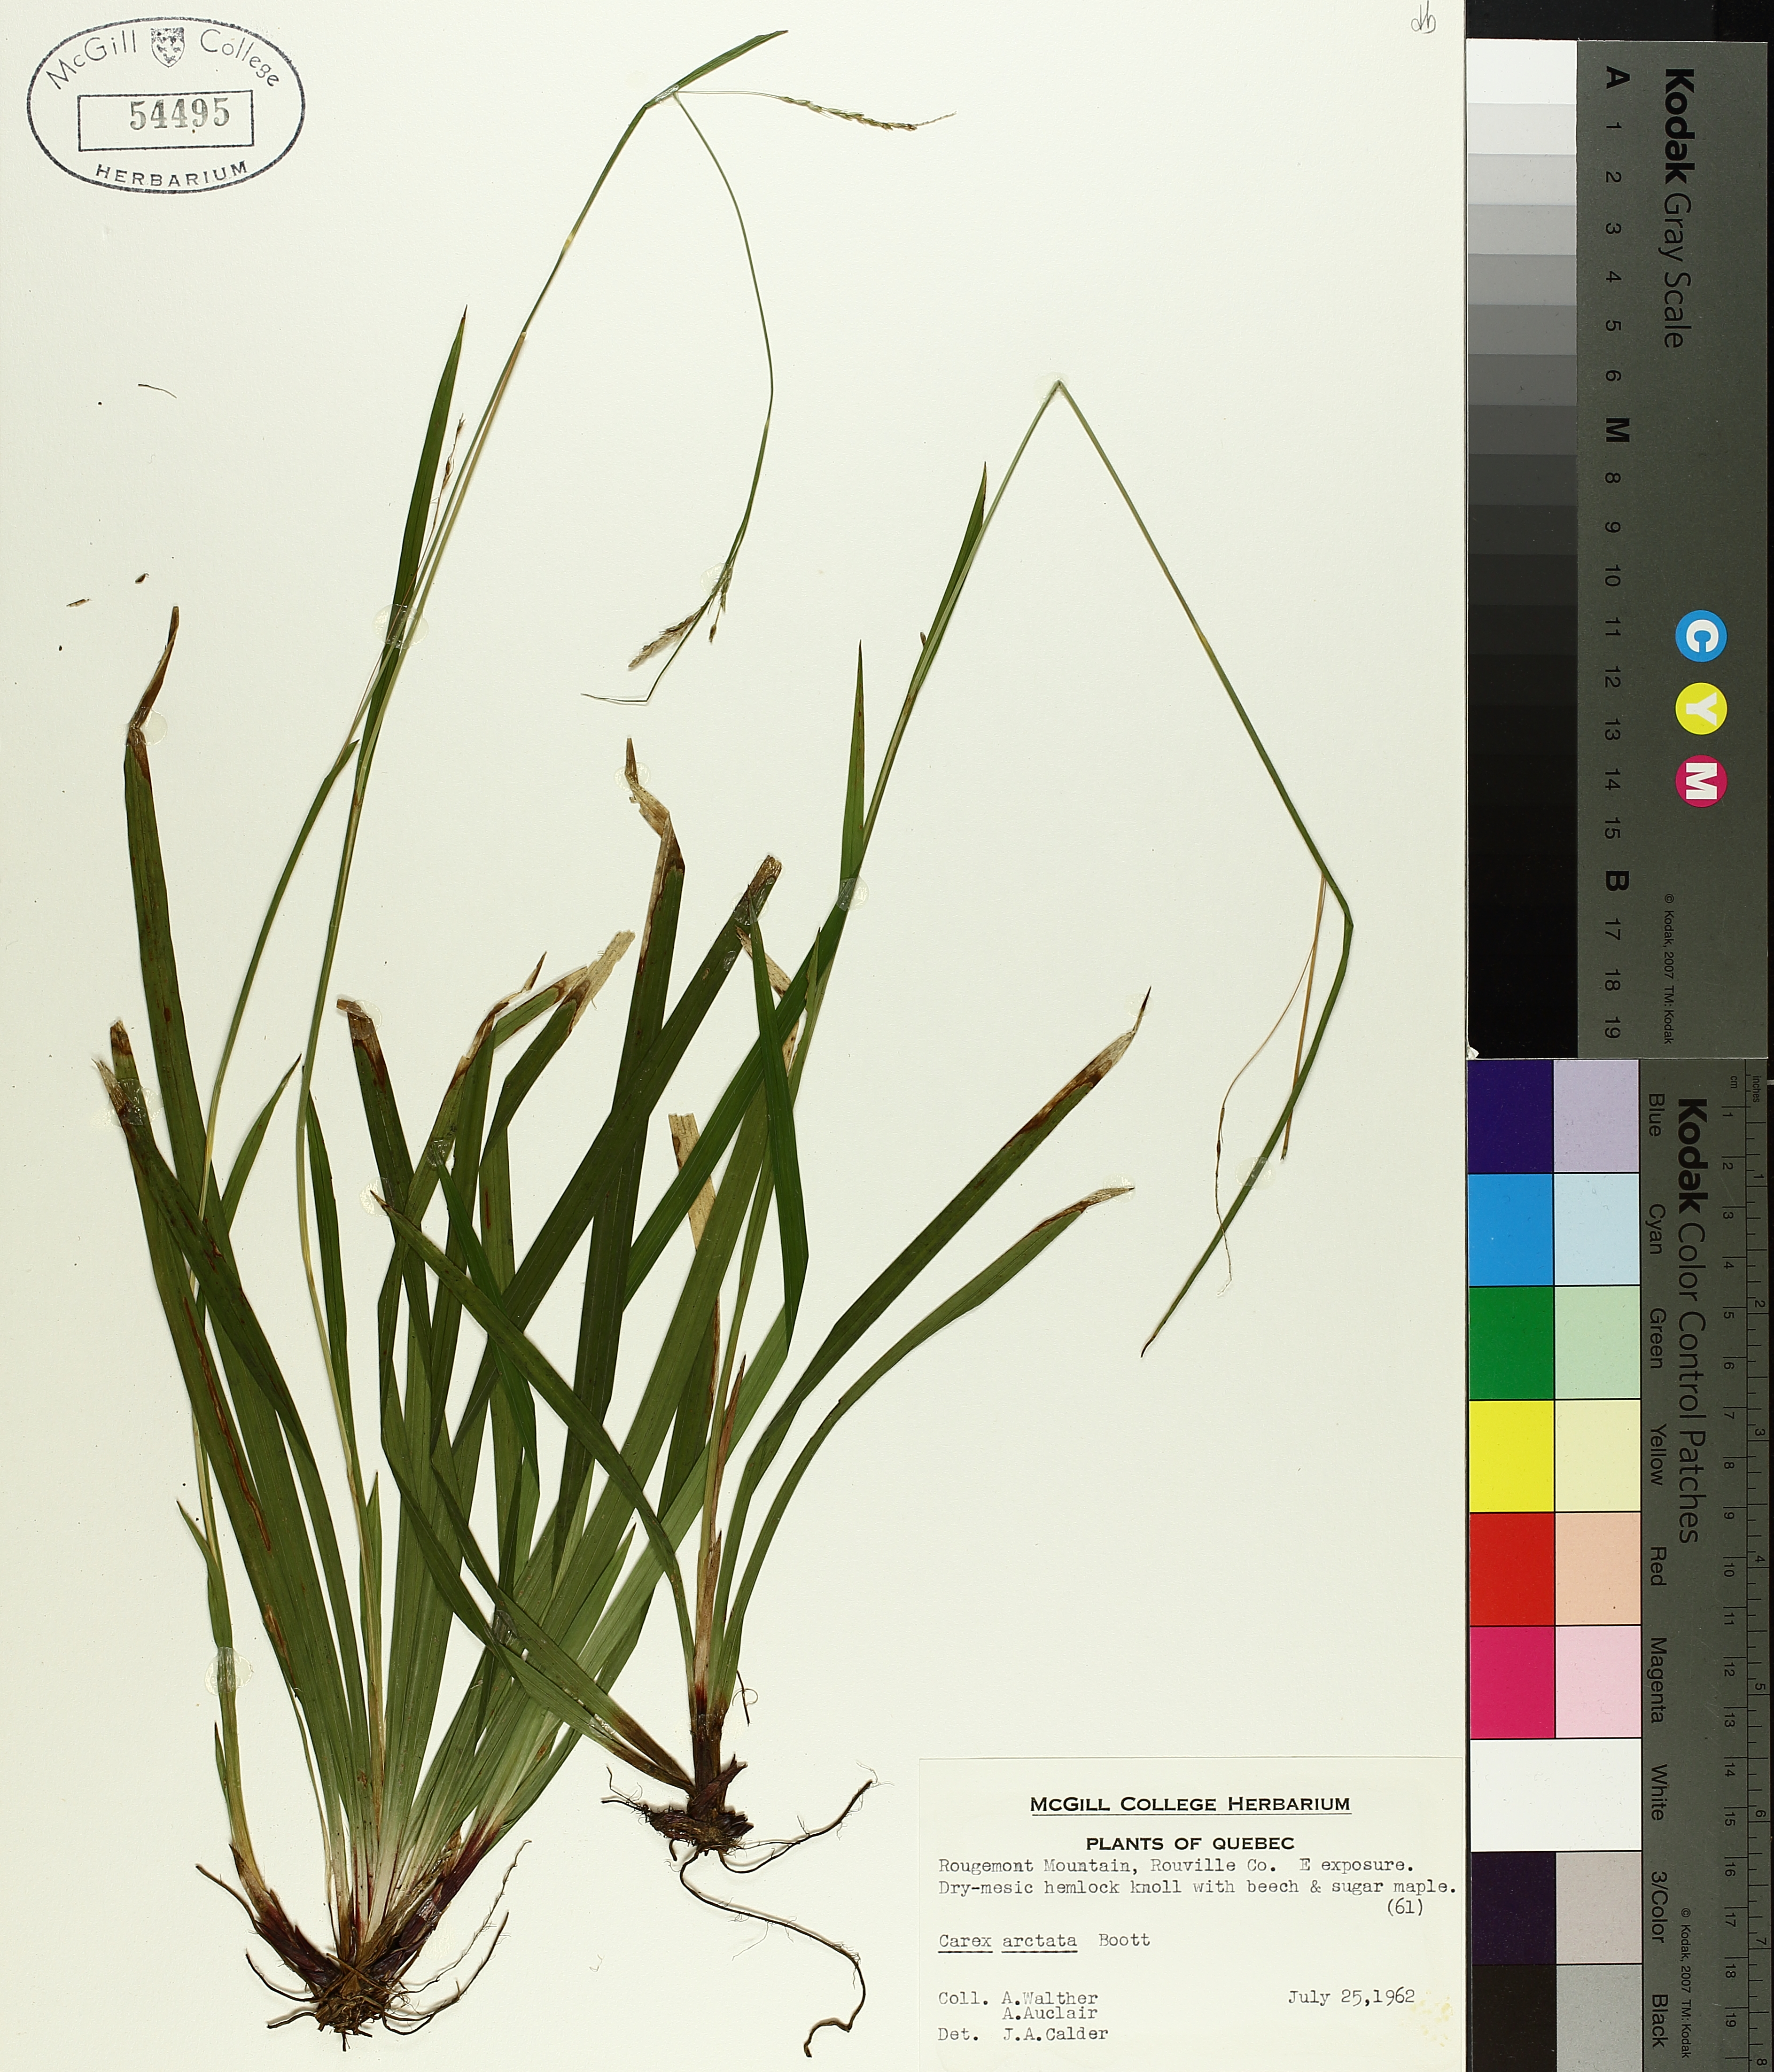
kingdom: Plantae
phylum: Tracheophyta
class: Liliopsida
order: Poales
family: Cyperaceae
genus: Carex
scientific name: Carex arctata
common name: Black sedge
